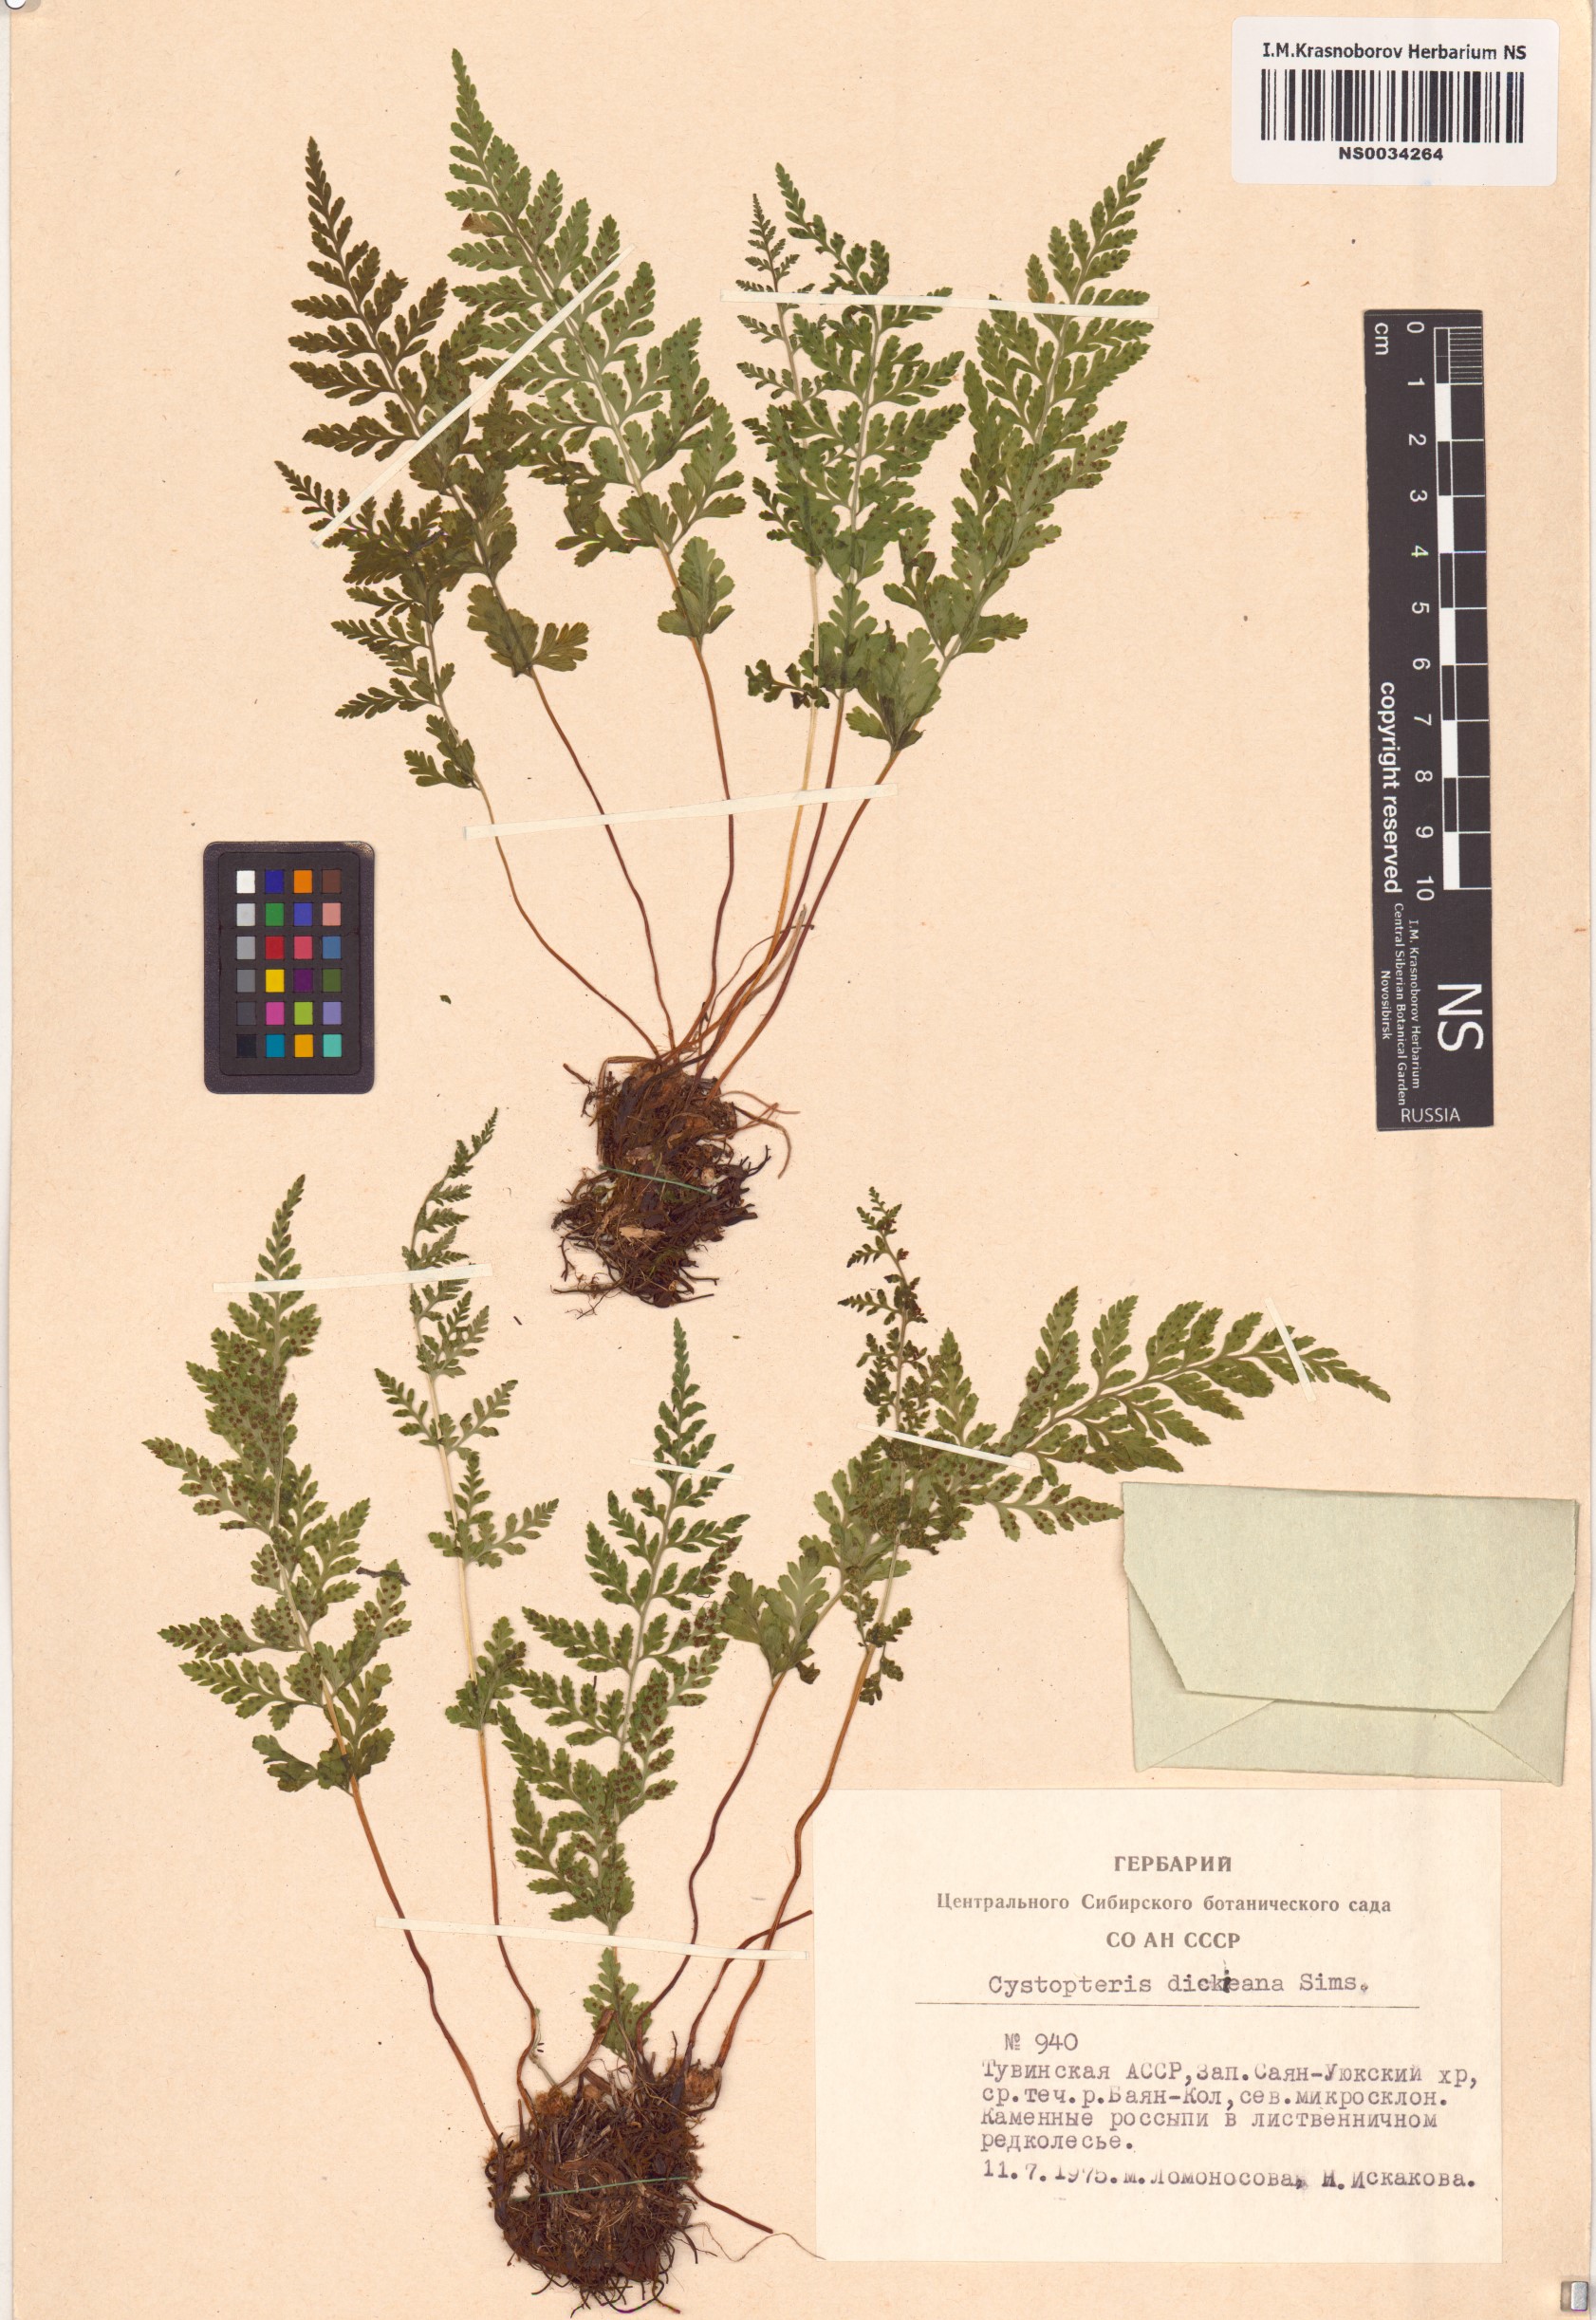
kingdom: Plantae
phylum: Tracheophyta
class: Polypodiopsida
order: Polypodiales
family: Cystopteridaceae
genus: Cystopteris
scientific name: Cystopteris dickieana
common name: Dickie's bladder-fern
